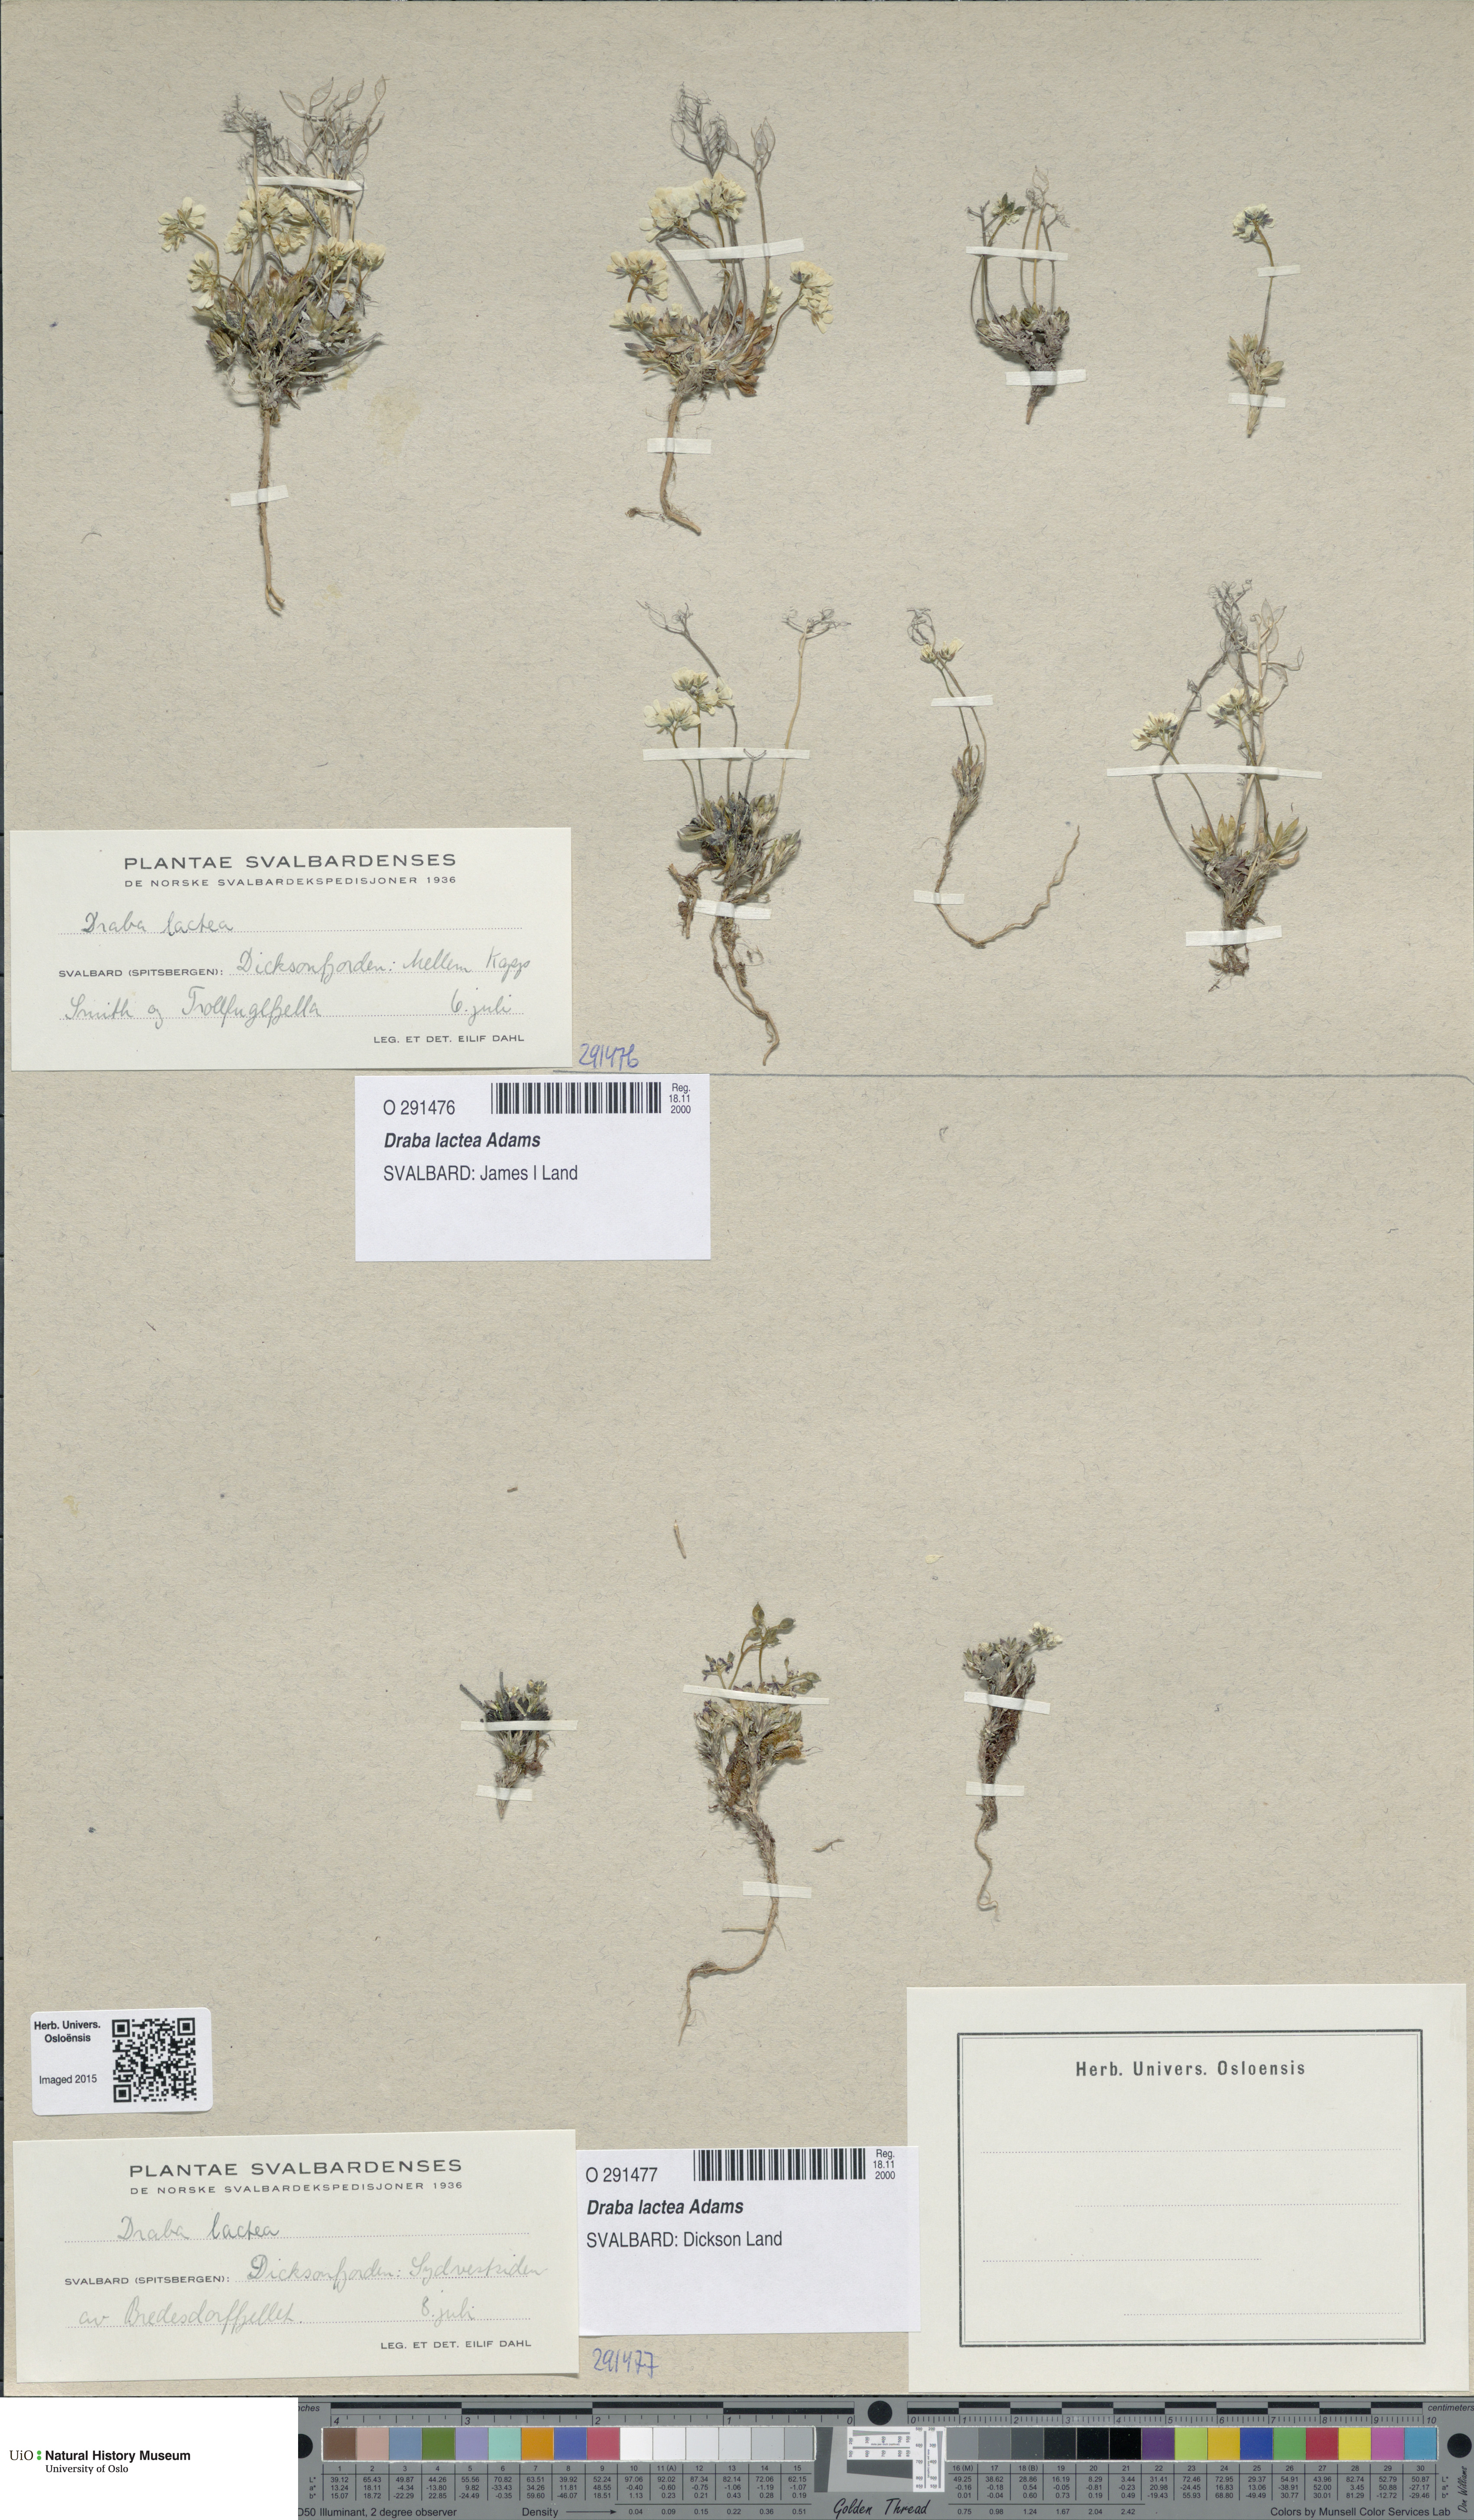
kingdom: Plantae
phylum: Tracheophyta
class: Magnoliopsida
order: Brassicales
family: Brassicaceae
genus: Draba
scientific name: Draba lactea
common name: Milky draba
